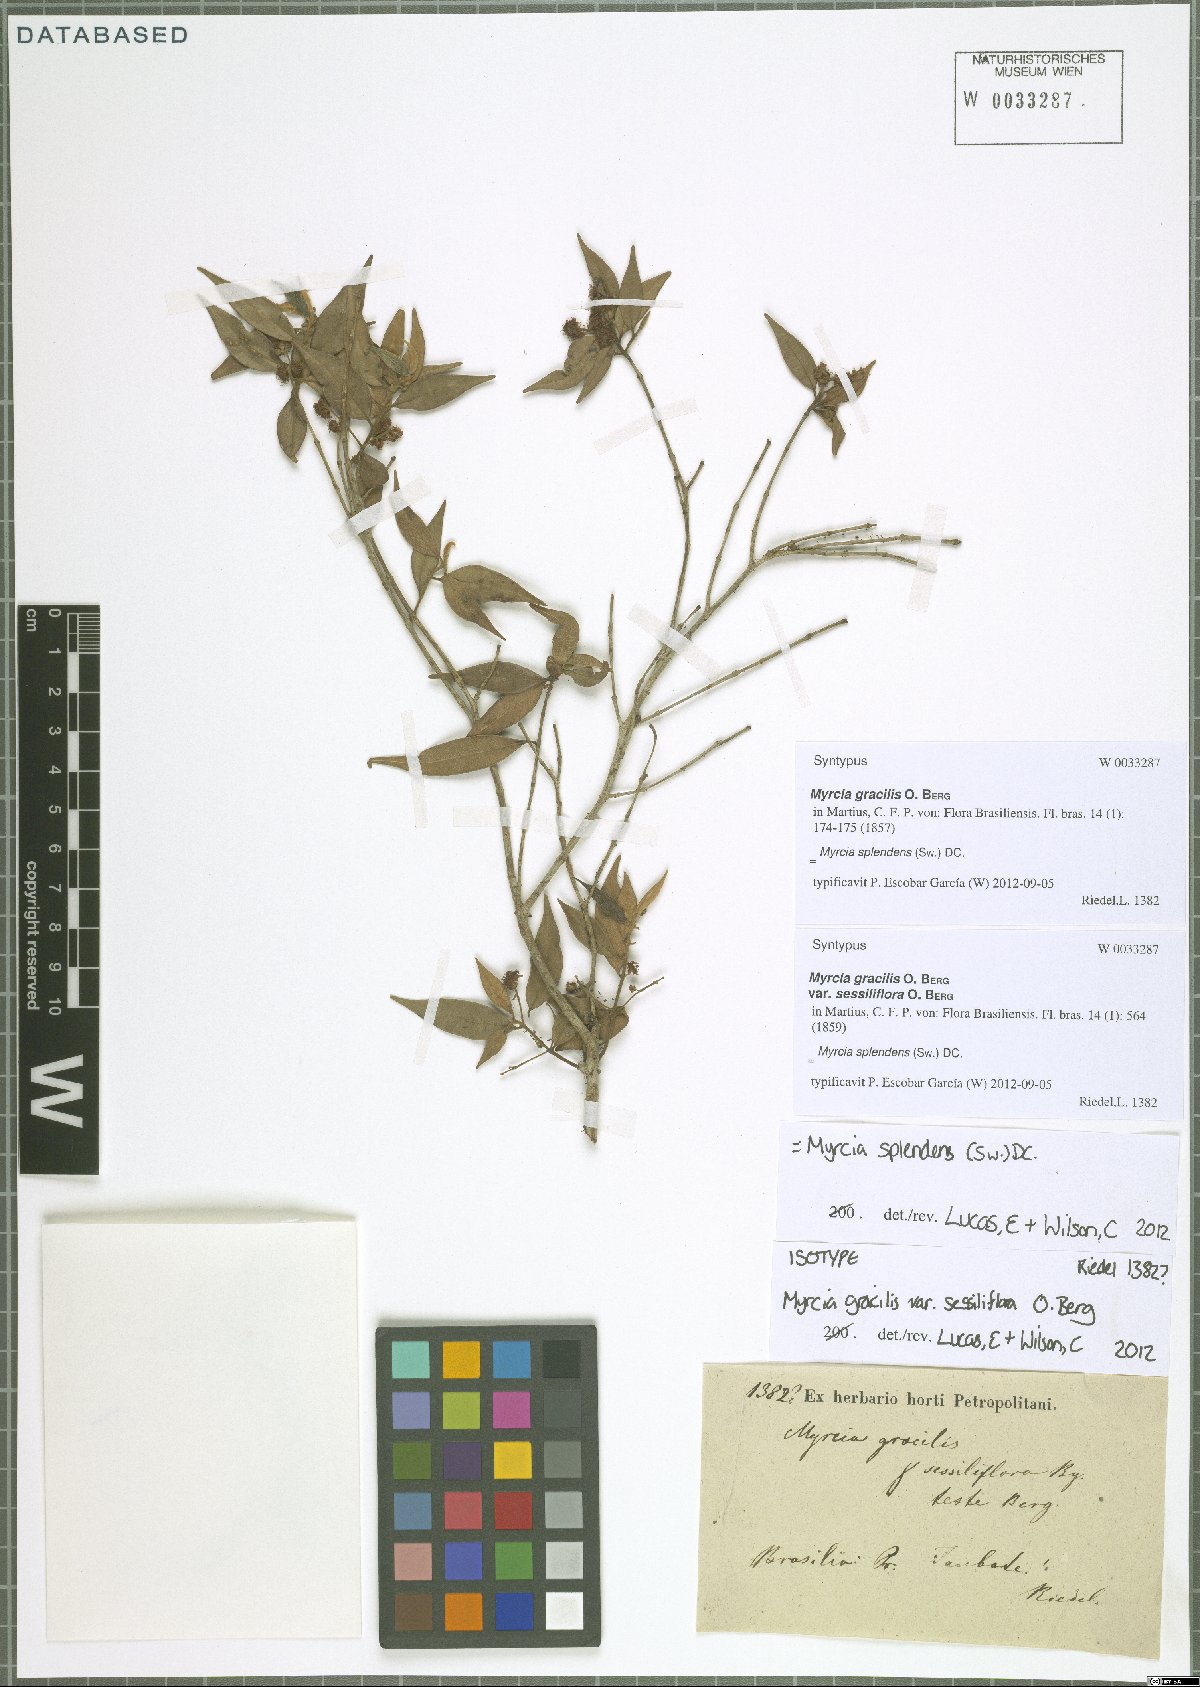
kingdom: Plantae
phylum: Tracheophyta
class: Magnoliopsida
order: Myrtales
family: Myrtaceae
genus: Myrcia
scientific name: Myrcia splendens
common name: Surinam cherry
